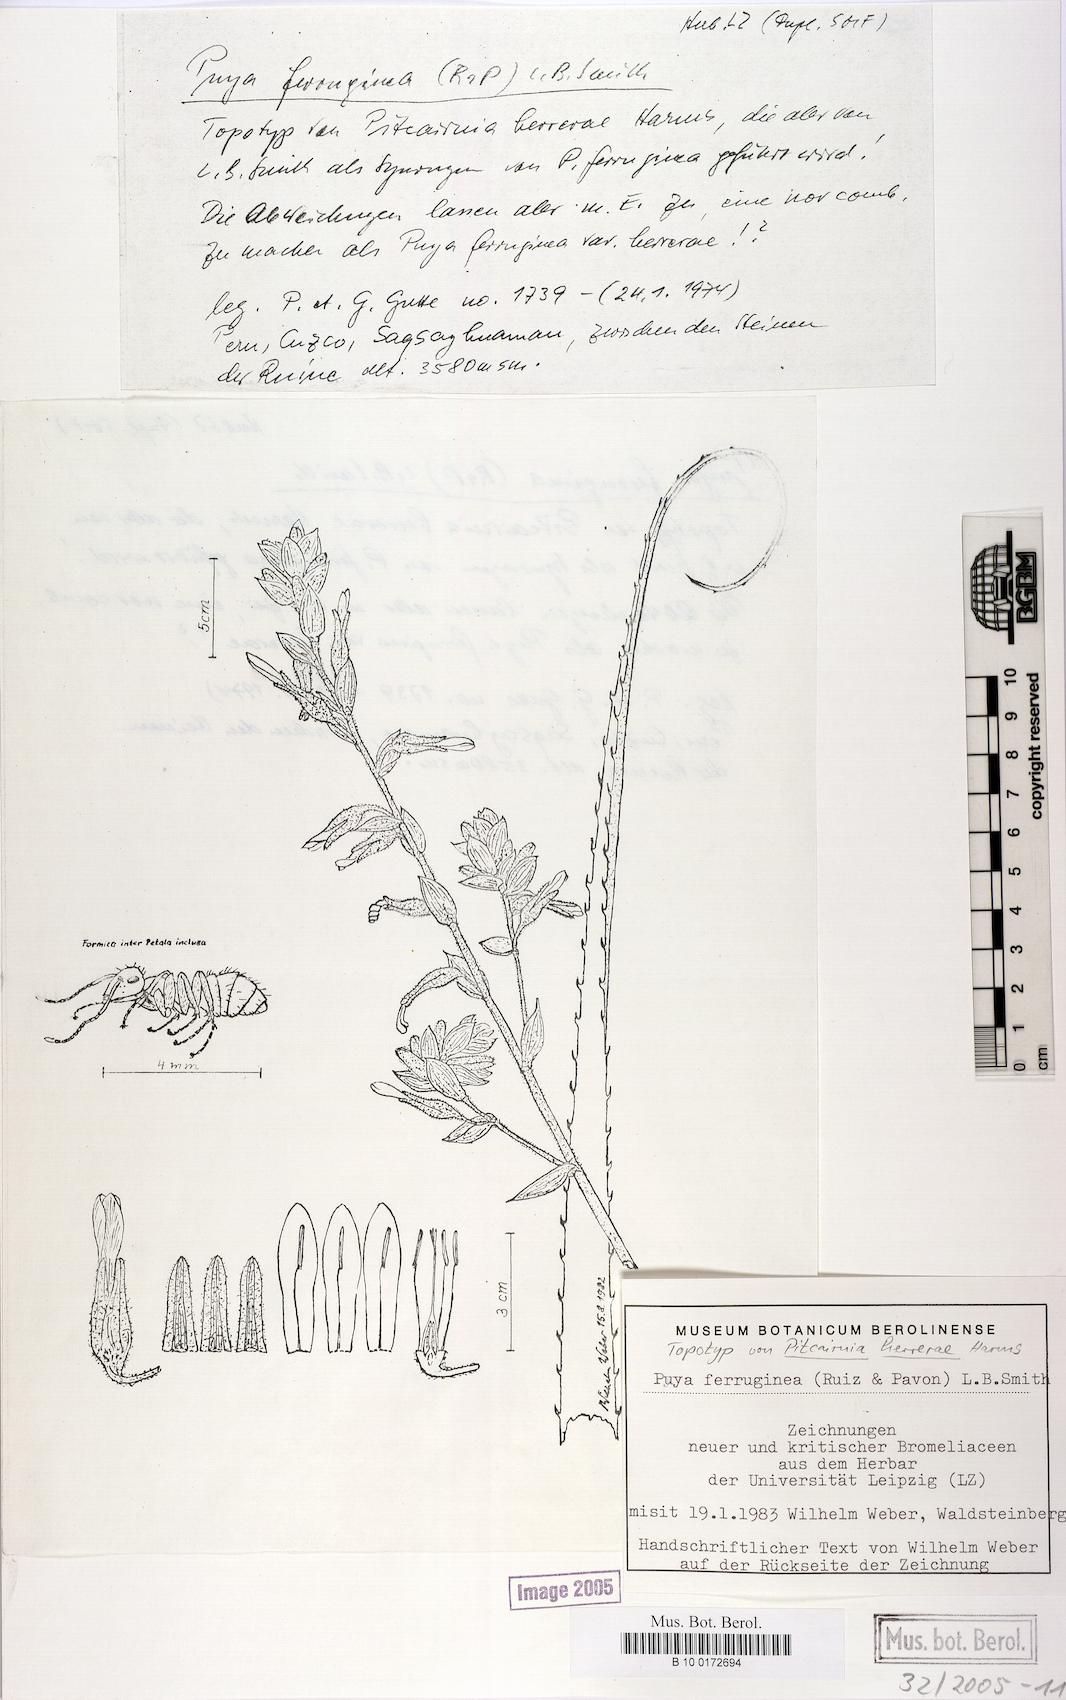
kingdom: Plantae
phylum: Tracheophyta
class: Liliopsida
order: Poales
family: Bromeliaceae
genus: Puya
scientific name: Puya ferruginea
